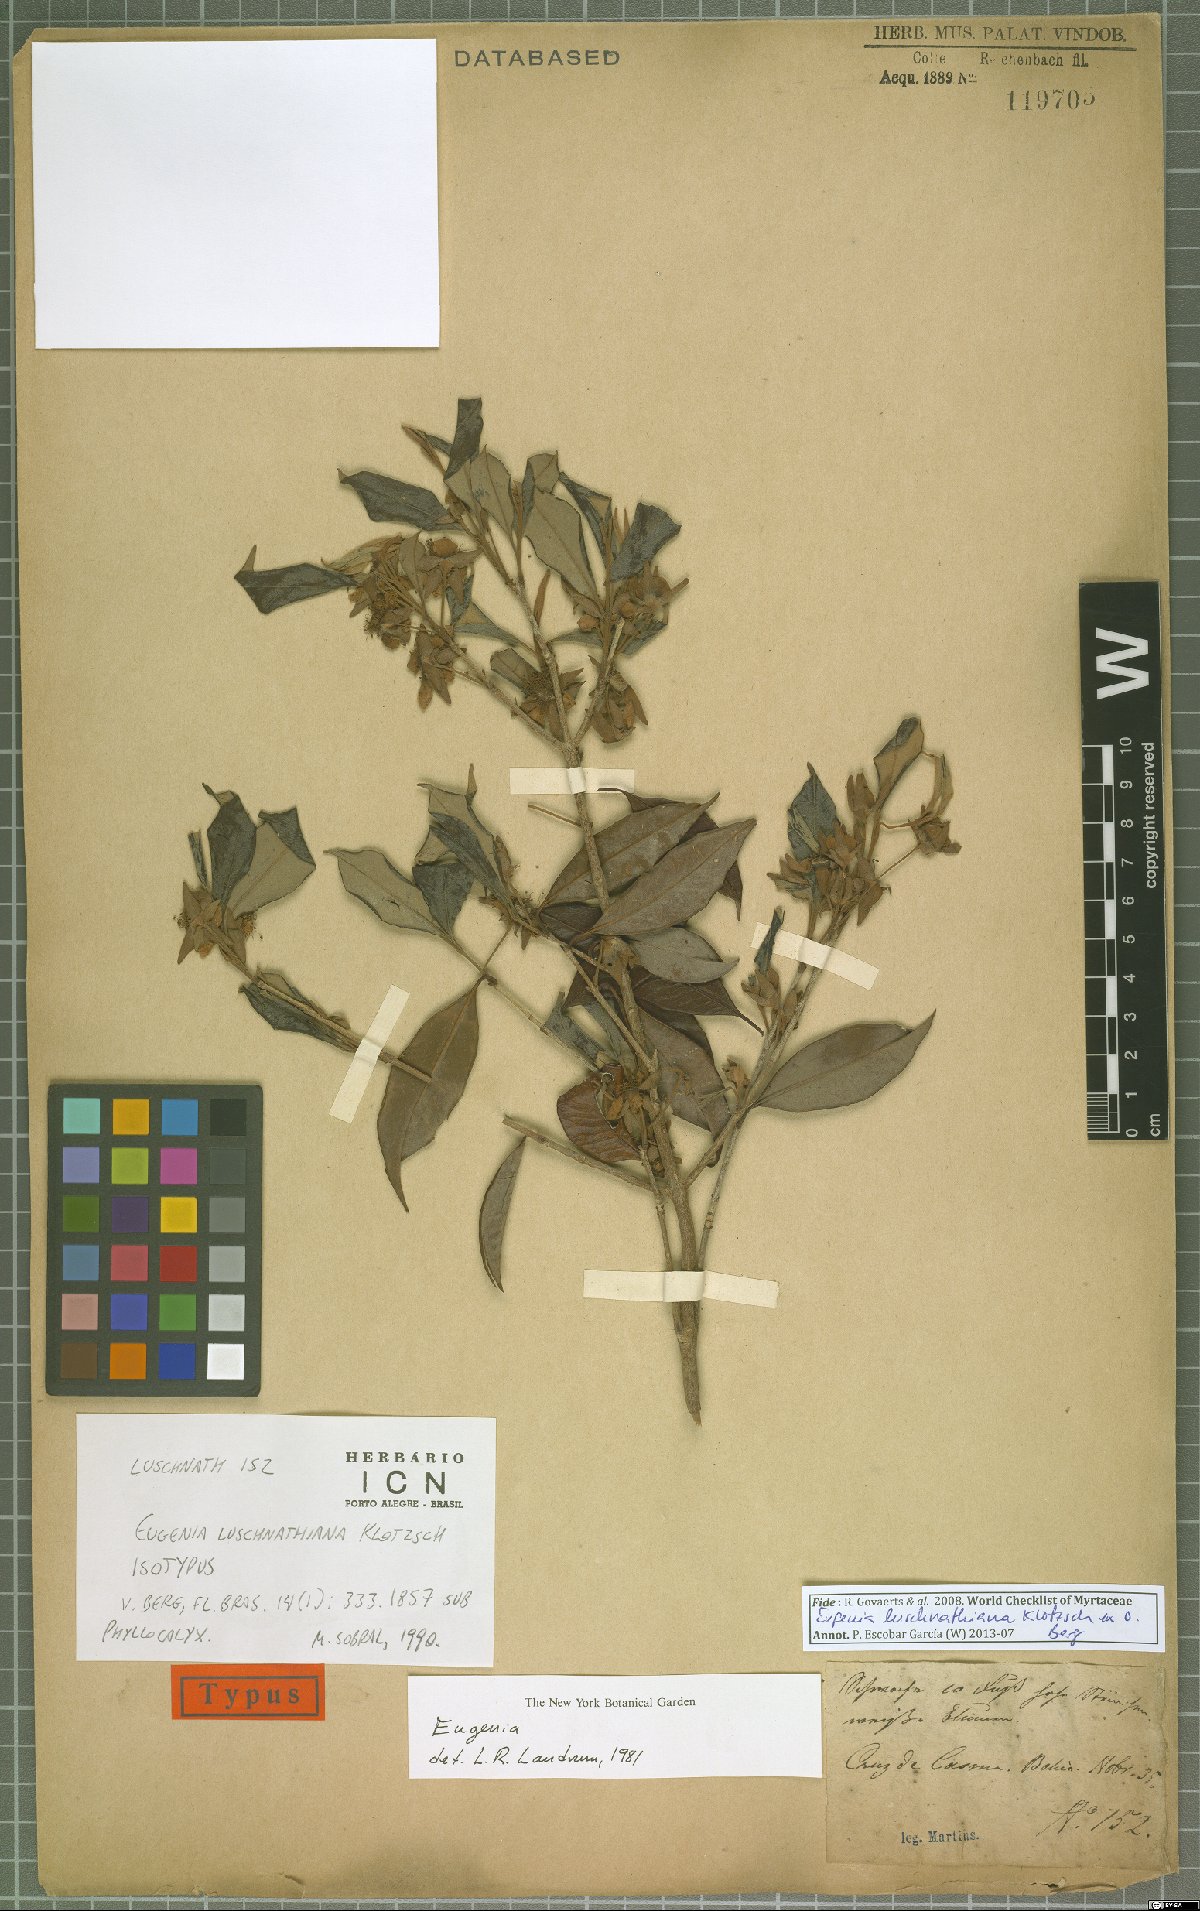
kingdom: Plantae
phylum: Tracheophyta
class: Magnoliopsida
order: Myrtales
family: Myrtaceae
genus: Eugenia
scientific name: Eugenia luschnathiana
